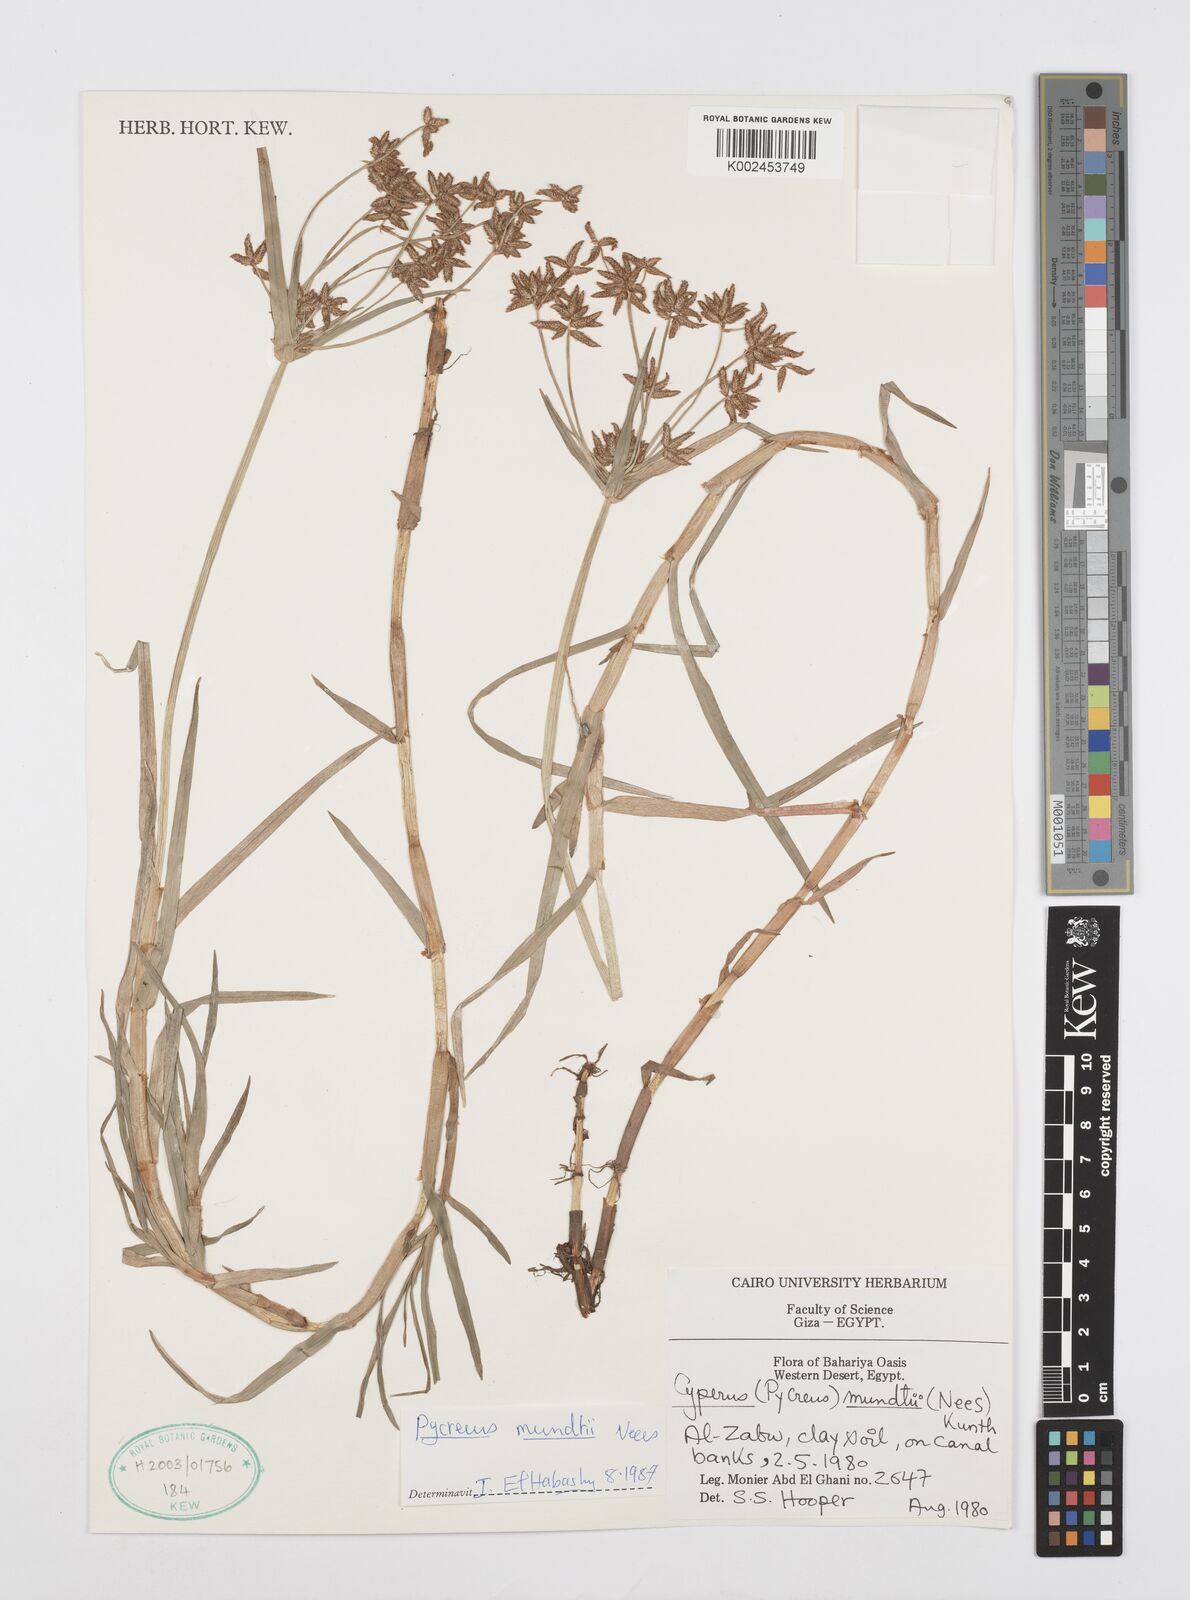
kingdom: Plantae
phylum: Tracheophyta
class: Liliopsida
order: Poales
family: Cyperaceae
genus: Cyperus
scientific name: Cyperus mundii
